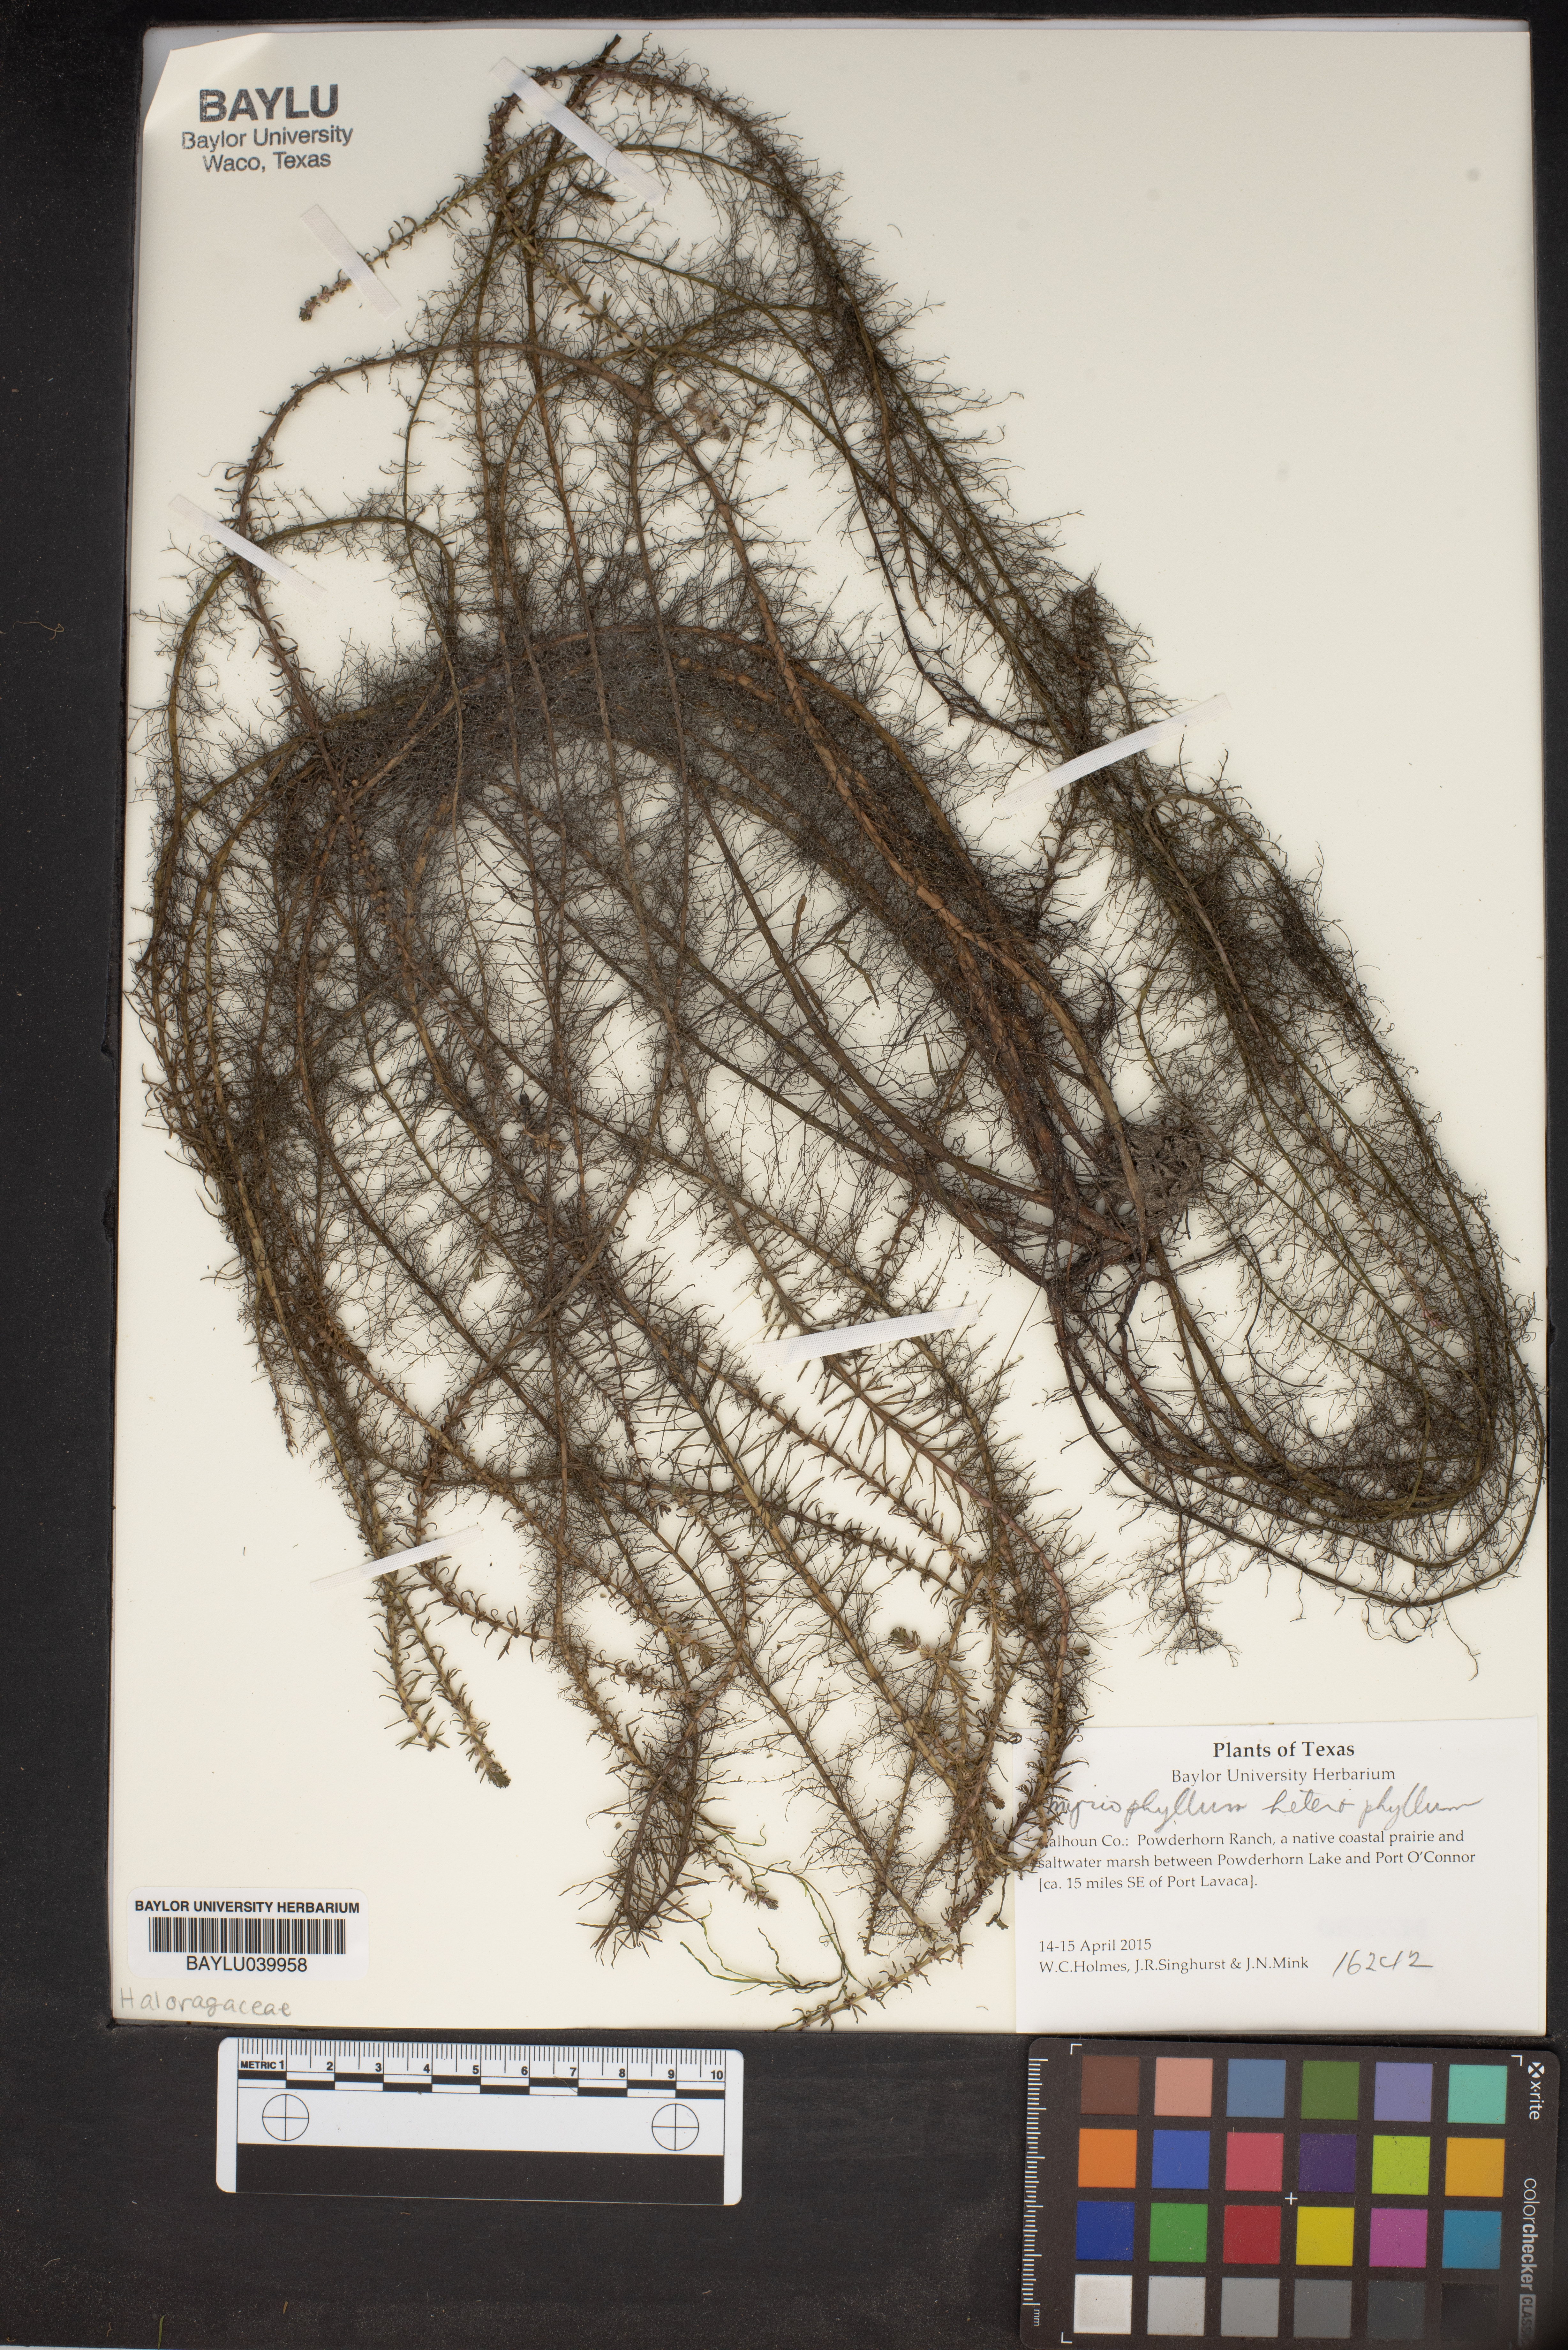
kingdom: Plantae
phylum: Tracheophyta
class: Magnoliopsida
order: Saxifragales
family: Haloragaceae
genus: Myriophyllum
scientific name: Myriophyllum heterophyllum
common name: Variable watermilfoil
